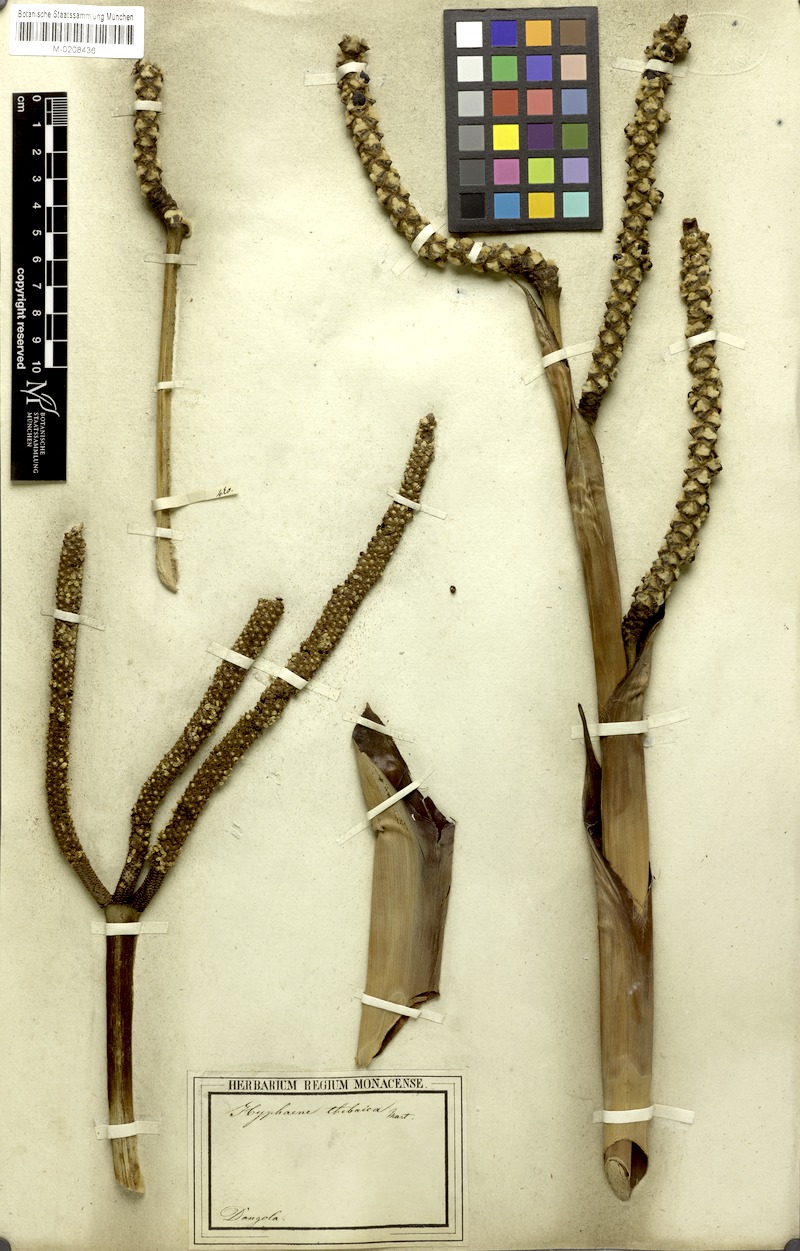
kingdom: Plantae
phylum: Tracheophyta
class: Liliopsida
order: Arecales
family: Arecaceae
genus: Hyphaene
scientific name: Hyphaene thebaica
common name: Doum palm
